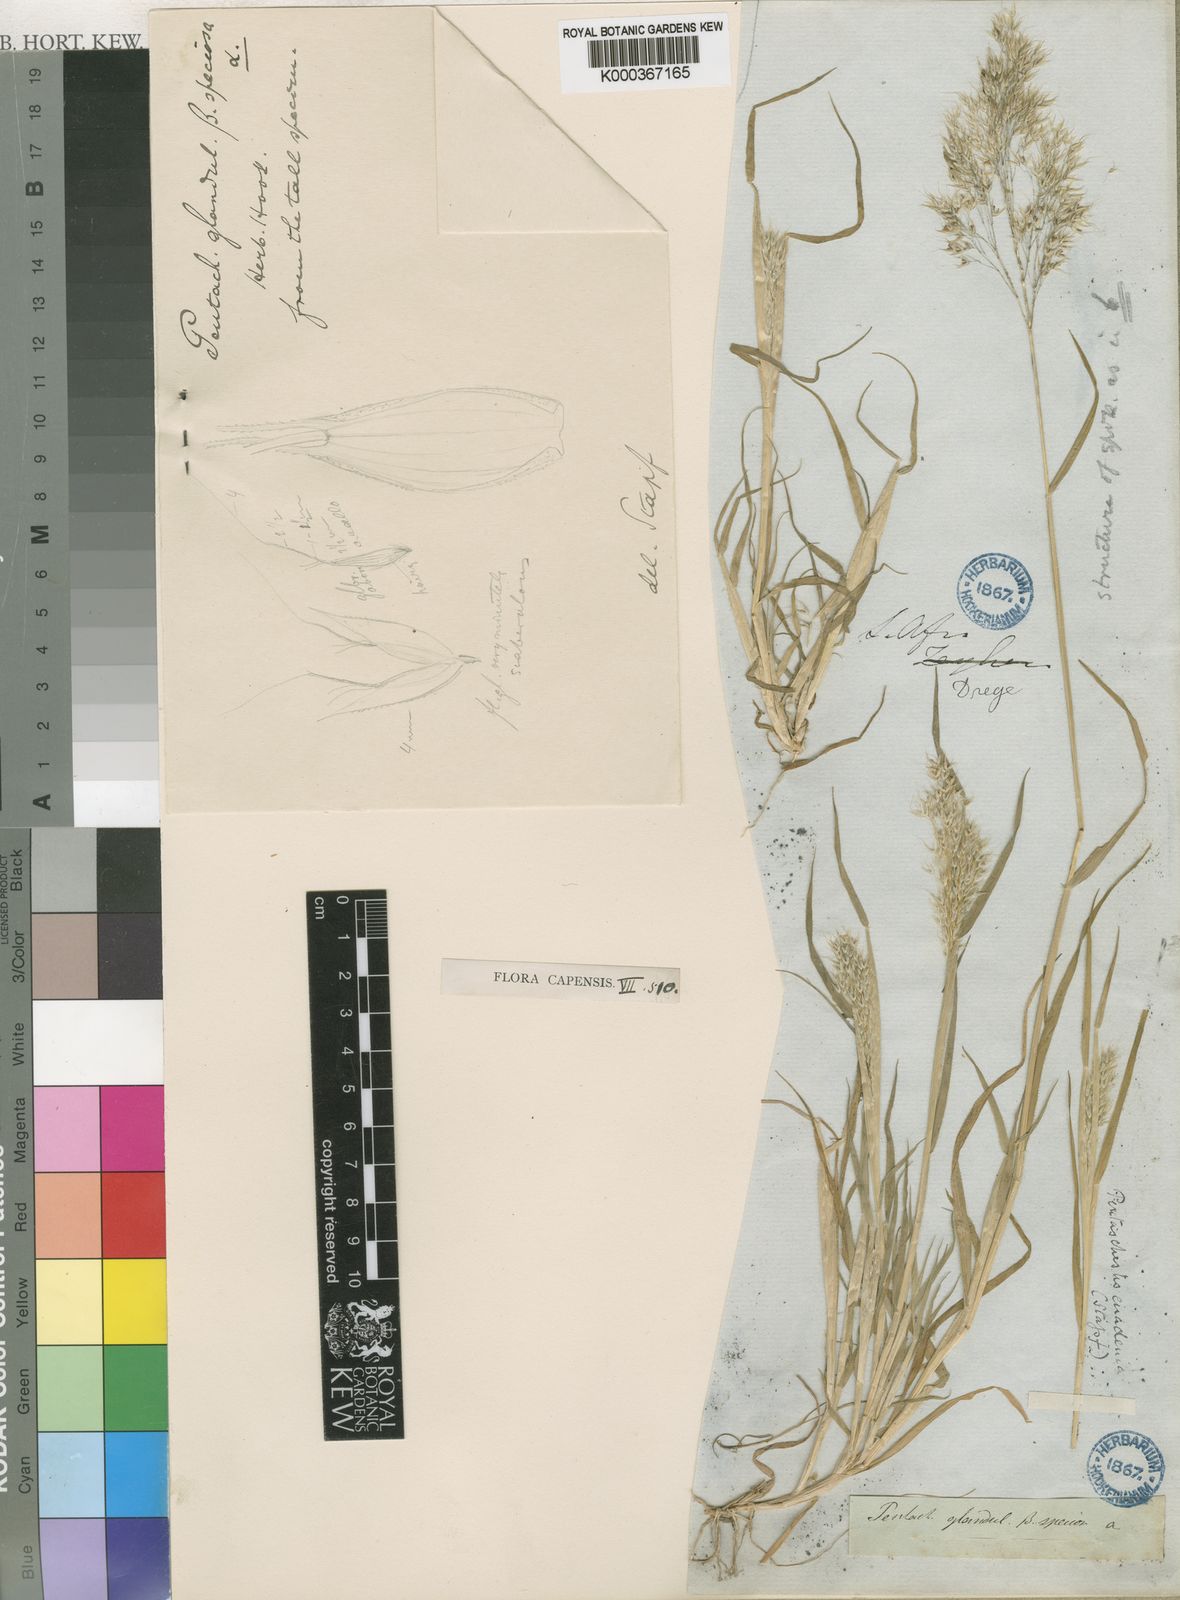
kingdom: Plantae
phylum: Tracheophyta
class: Liliopsida
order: Poales
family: Poaceae
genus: Pentameris
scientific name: Pentameris patula
